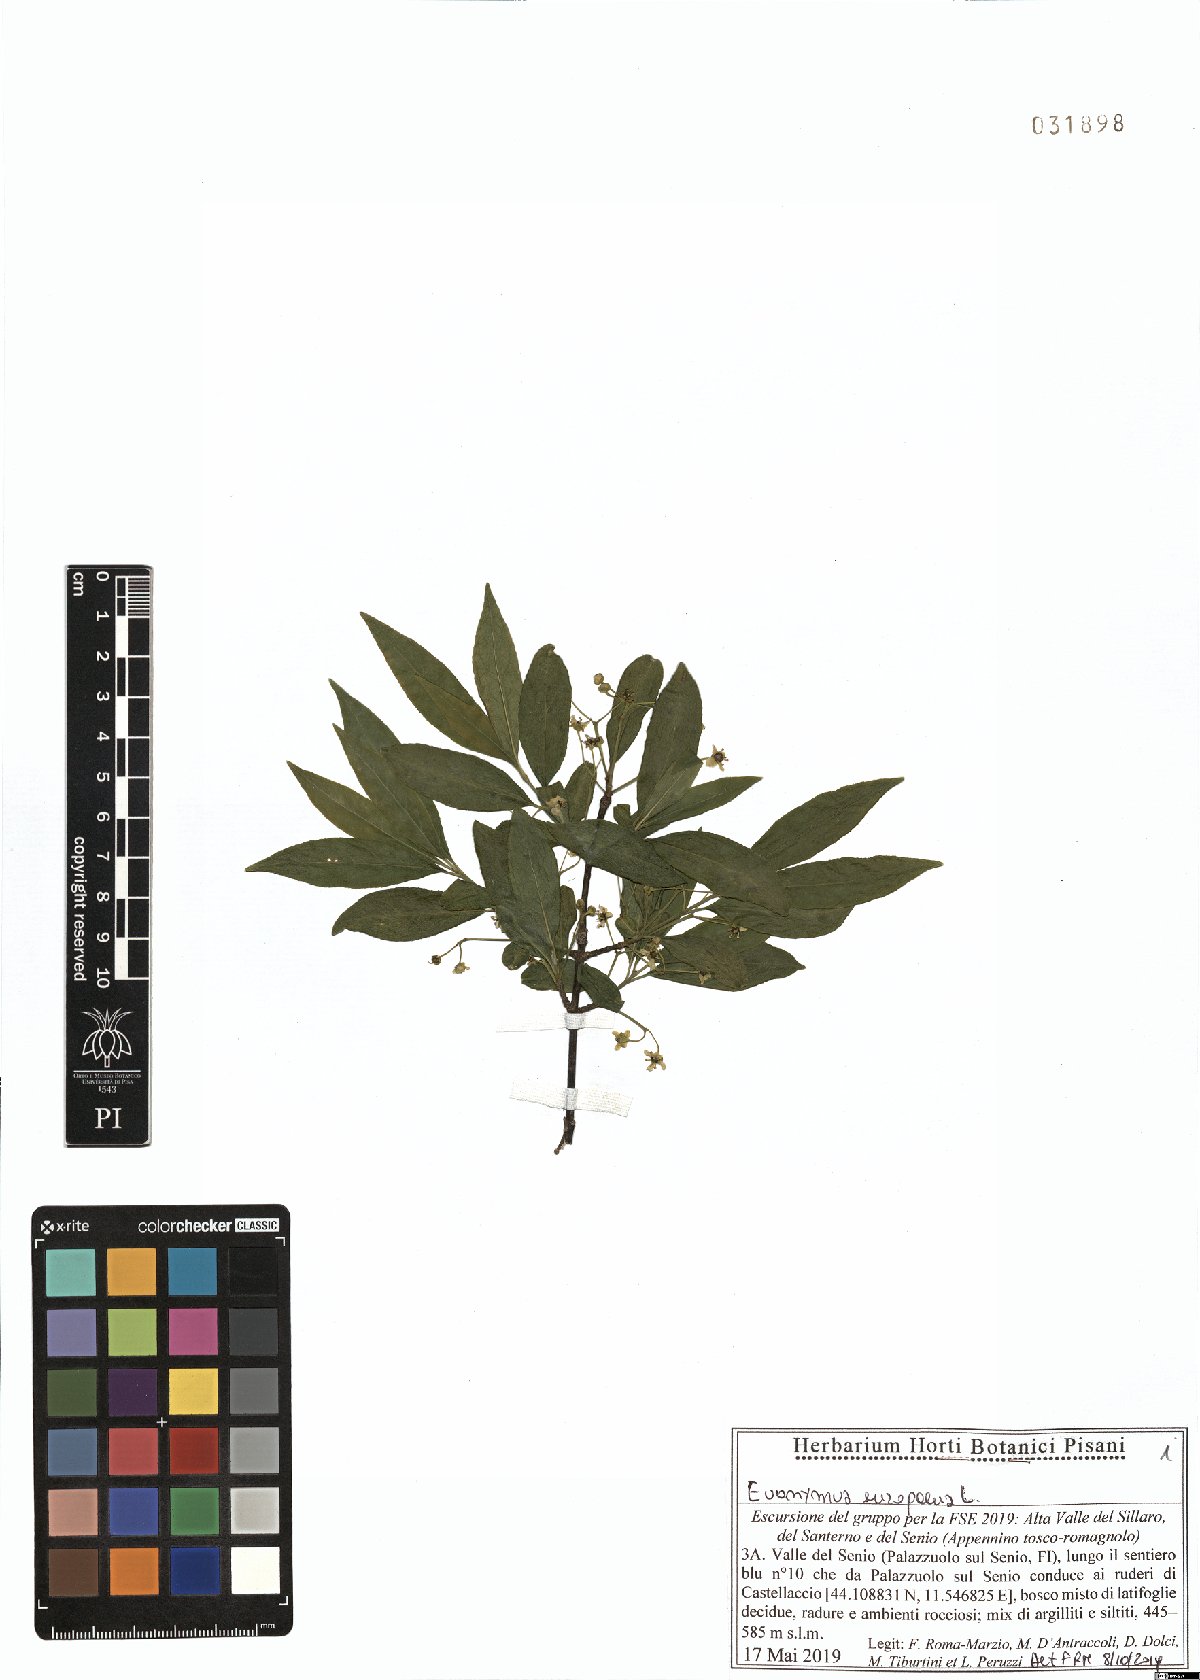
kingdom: Plantae
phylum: Tracheophyta
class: Magnoliopsida
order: Celastrales
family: Celastraceae
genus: Euonymus
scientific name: Euonymus europaeus
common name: Spindle
